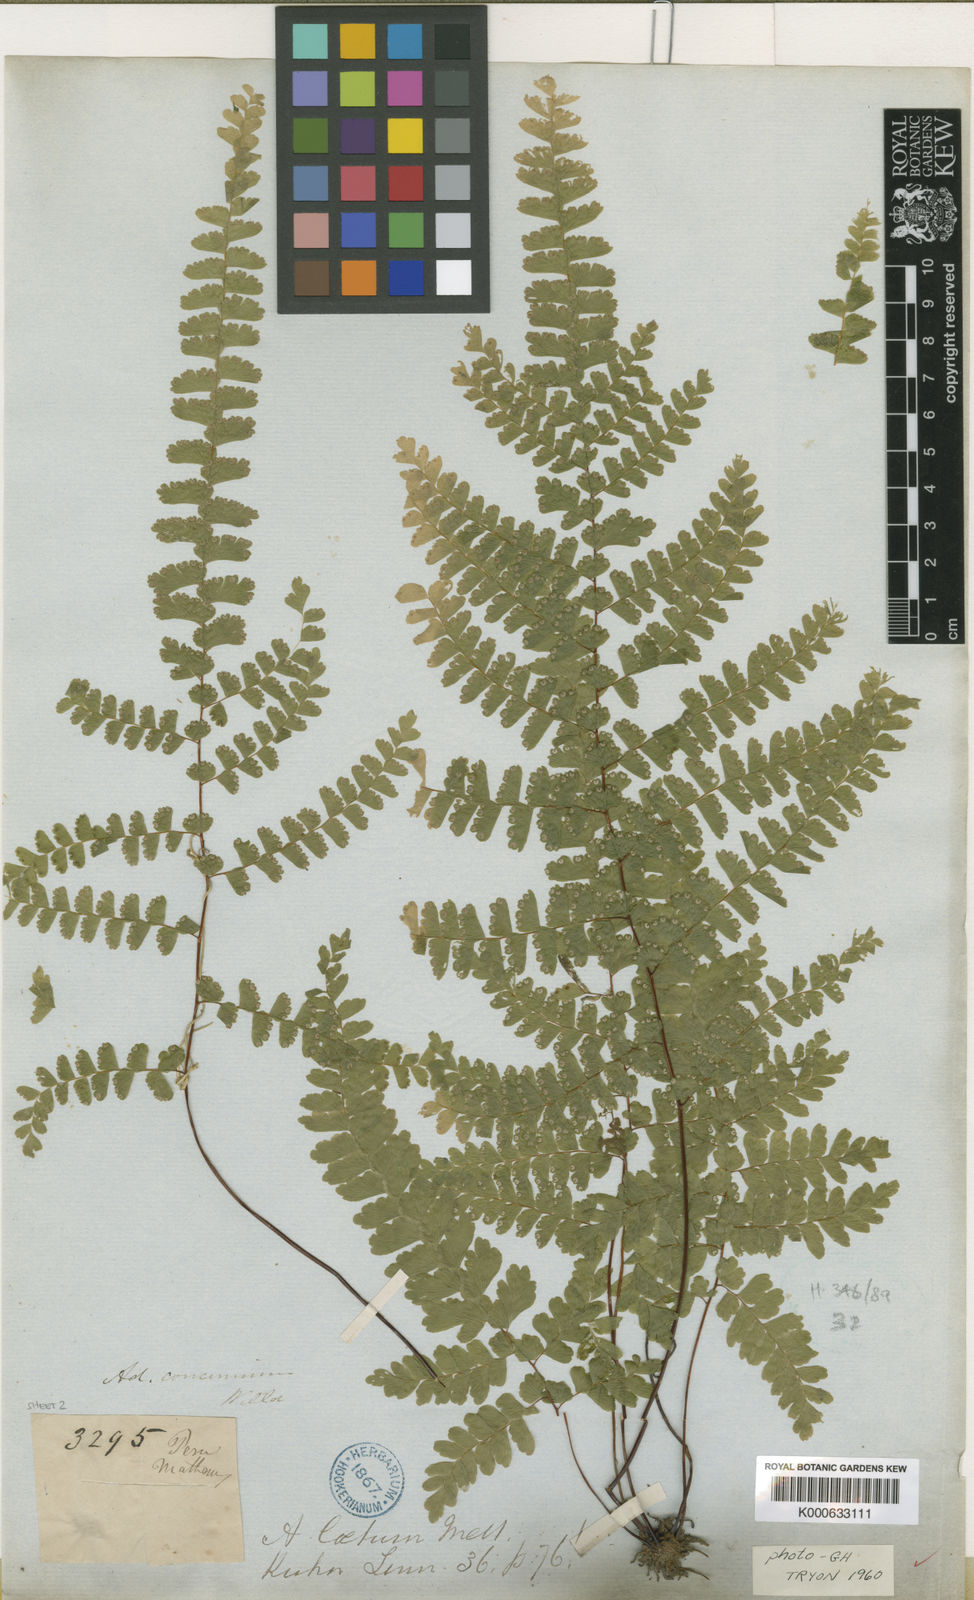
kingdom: Plantae
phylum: Tracheophyta
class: Polypodiopsida
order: Polypodiales
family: Pteridaceae
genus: Adiantum
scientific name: Adiantum
